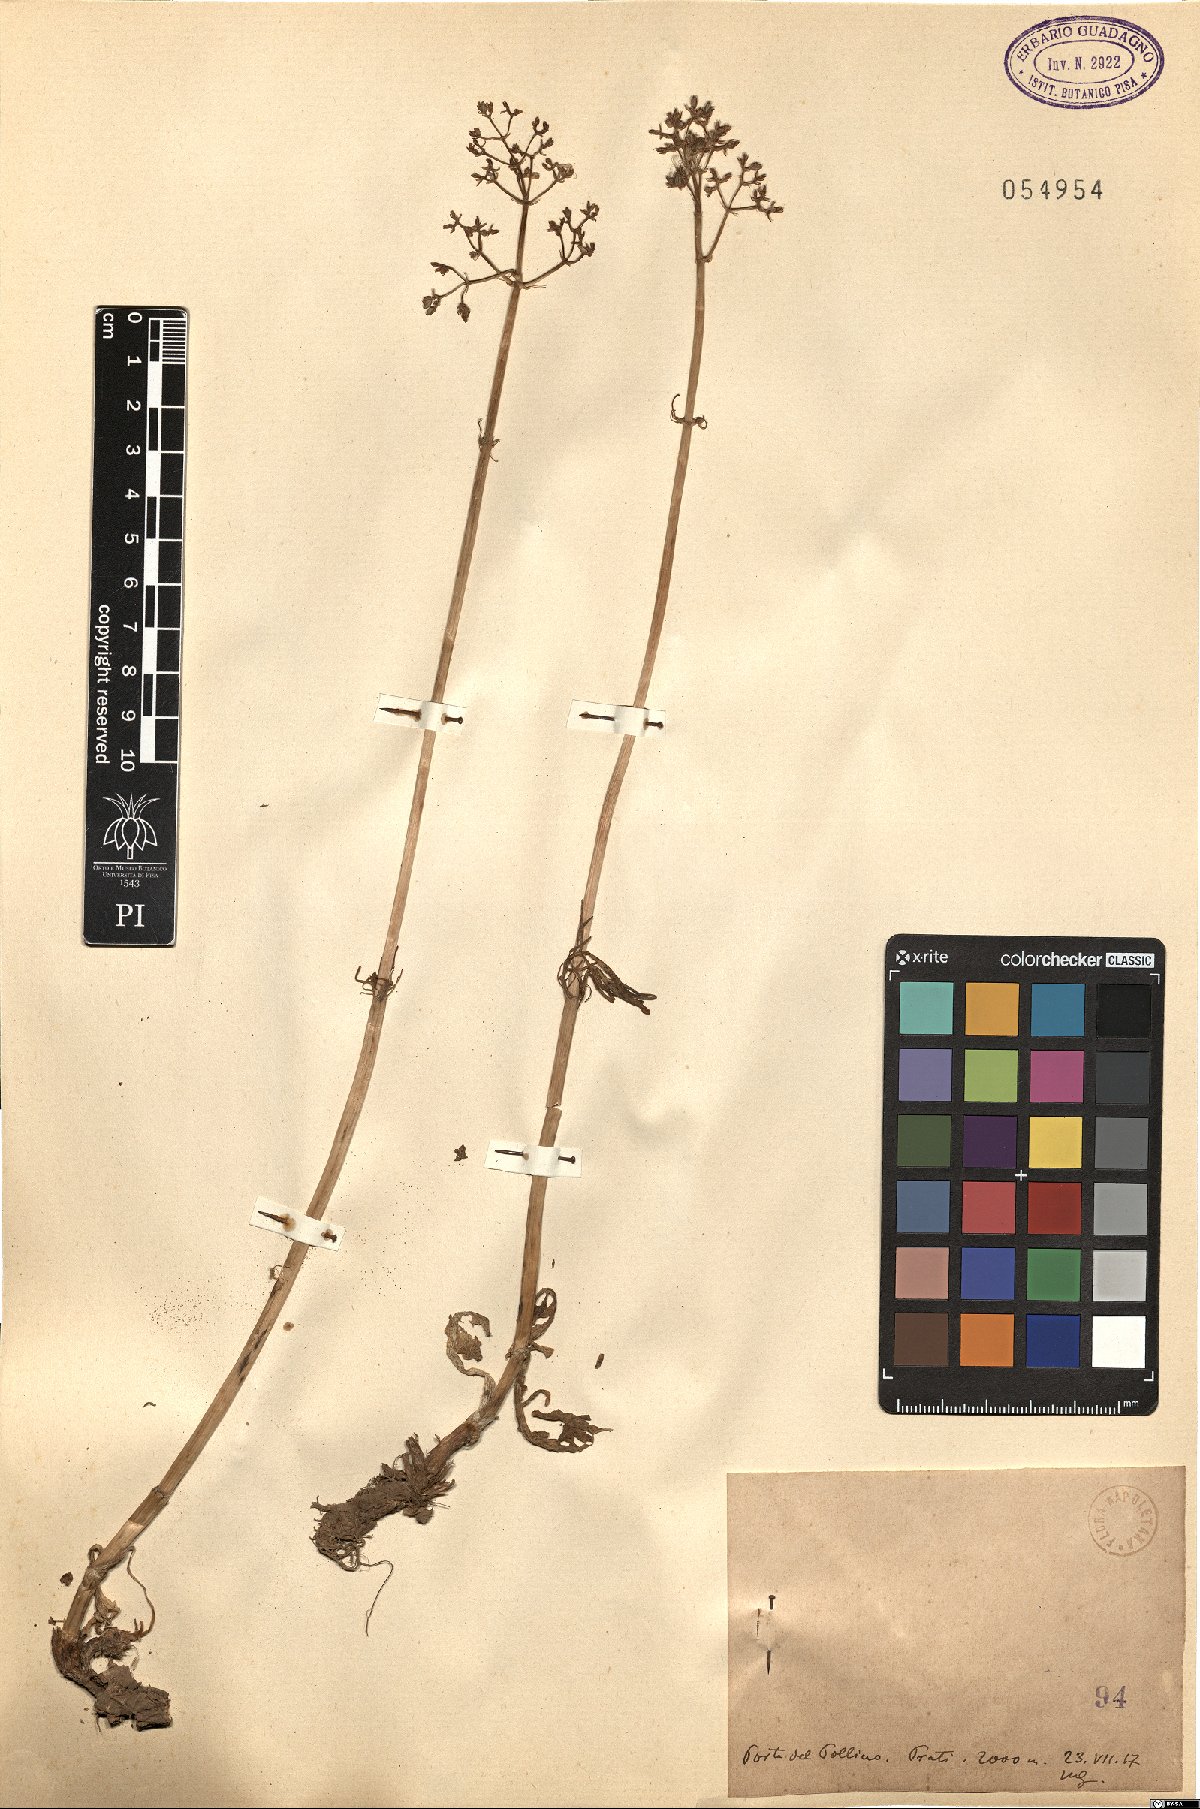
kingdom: Plantae
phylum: Tracheophyta
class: Magnoliopsida
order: Dipsacales
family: Caprifoliaceae
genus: Valeriana
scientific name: Valeriana
